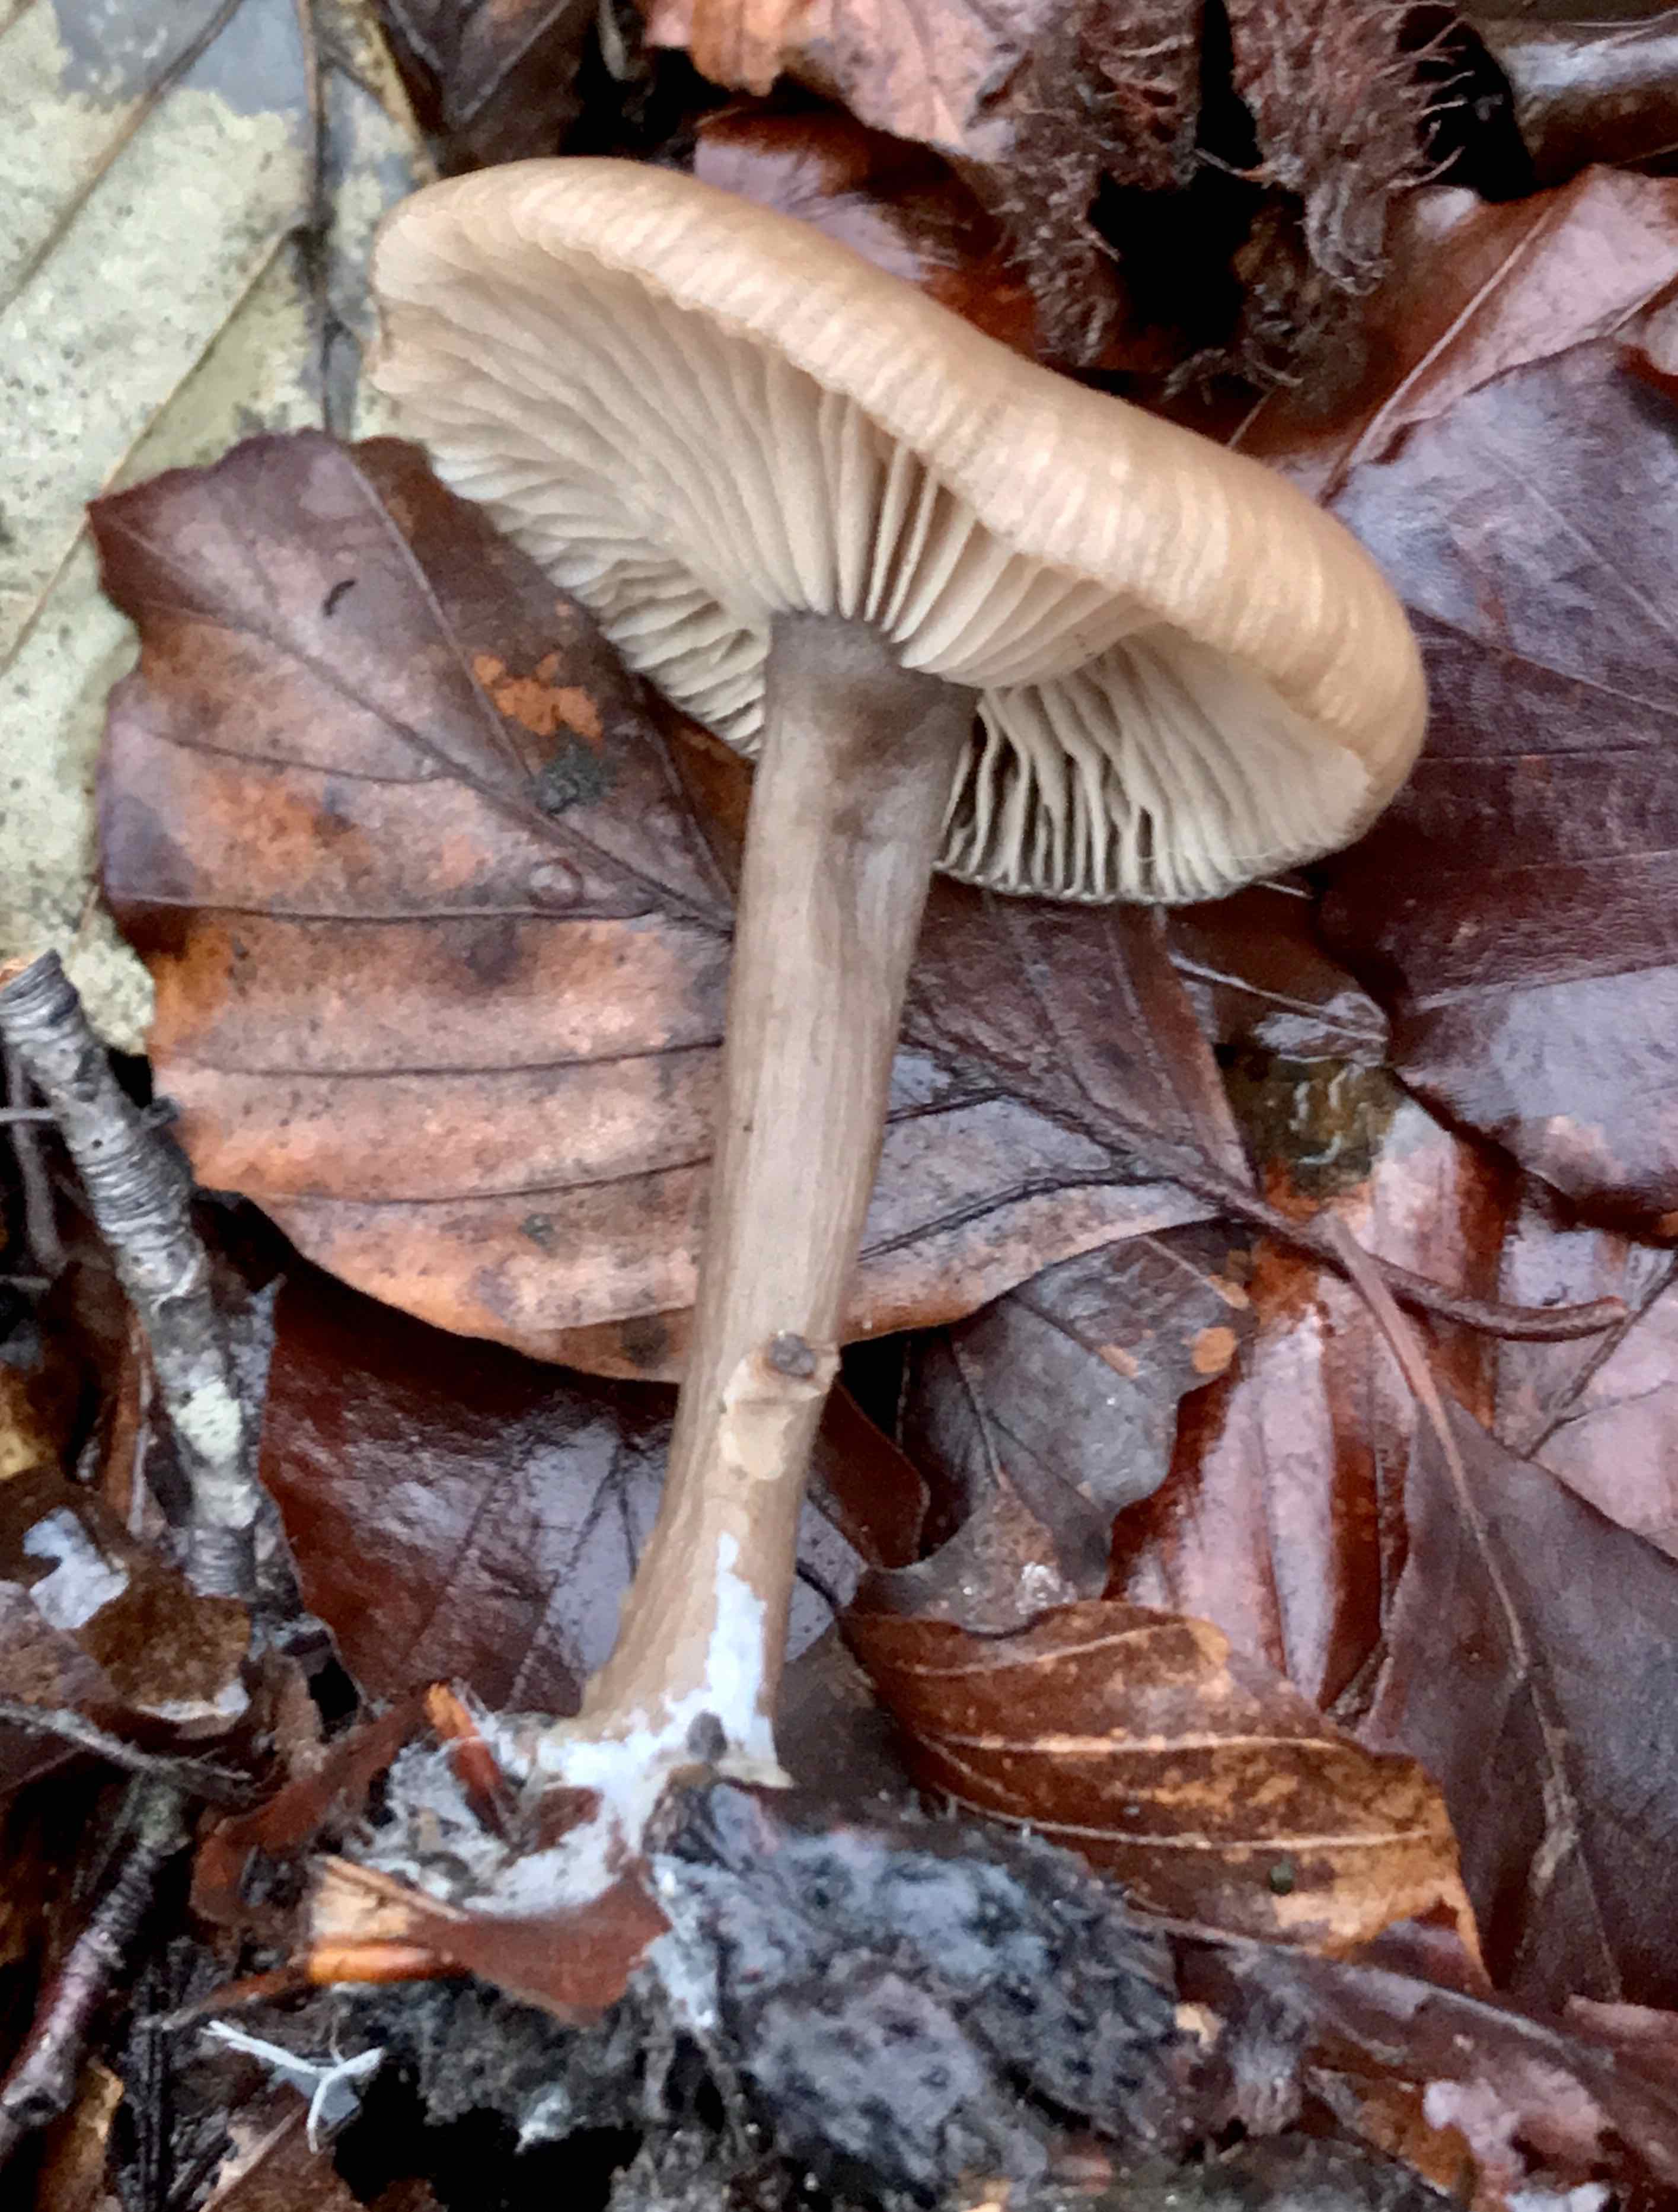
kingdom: Fungi
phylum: Basidiomycota
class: Agaricomycetes
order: Agaricales
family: Pseudoclitocybaceae
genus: Pseudoclitocybe
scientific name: Pseudoclitocybe cyathiformis
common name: almindelig bægertragthat
